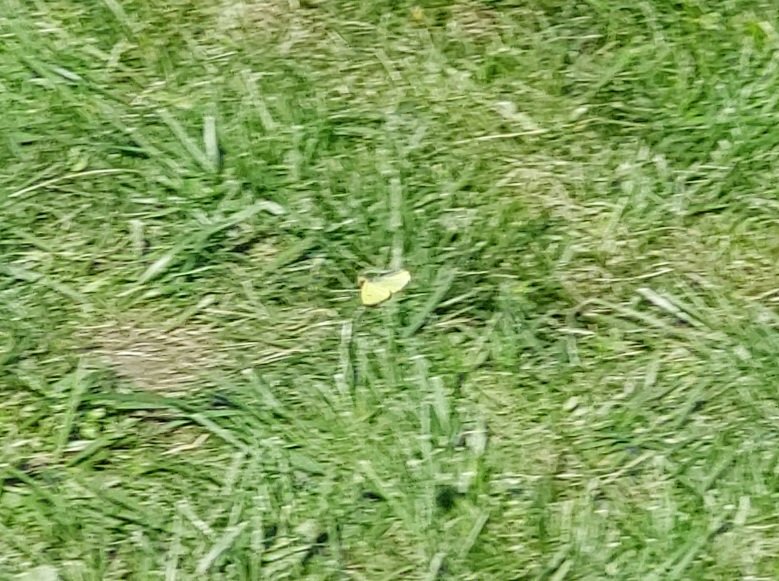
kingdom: Animalia
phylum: Arthropoda
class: Insecta
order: Lepidoptera
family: Pieridae
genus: Colias
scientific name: Colias philodice
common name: Clouded Sulphur
